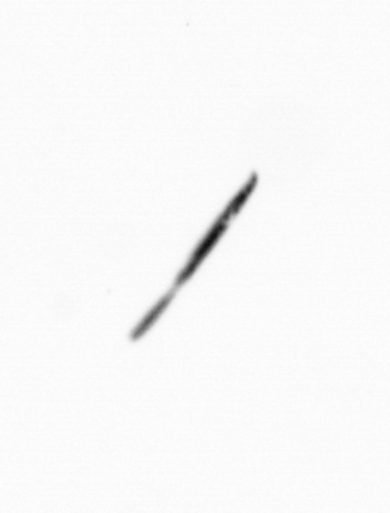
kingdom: Bacteria
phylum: Cyanobacteria
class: Cyanobacteriia
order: Cyanobacteriales
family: Microcoleaceae
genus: Trichodesmium
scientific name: Trichodesmium
